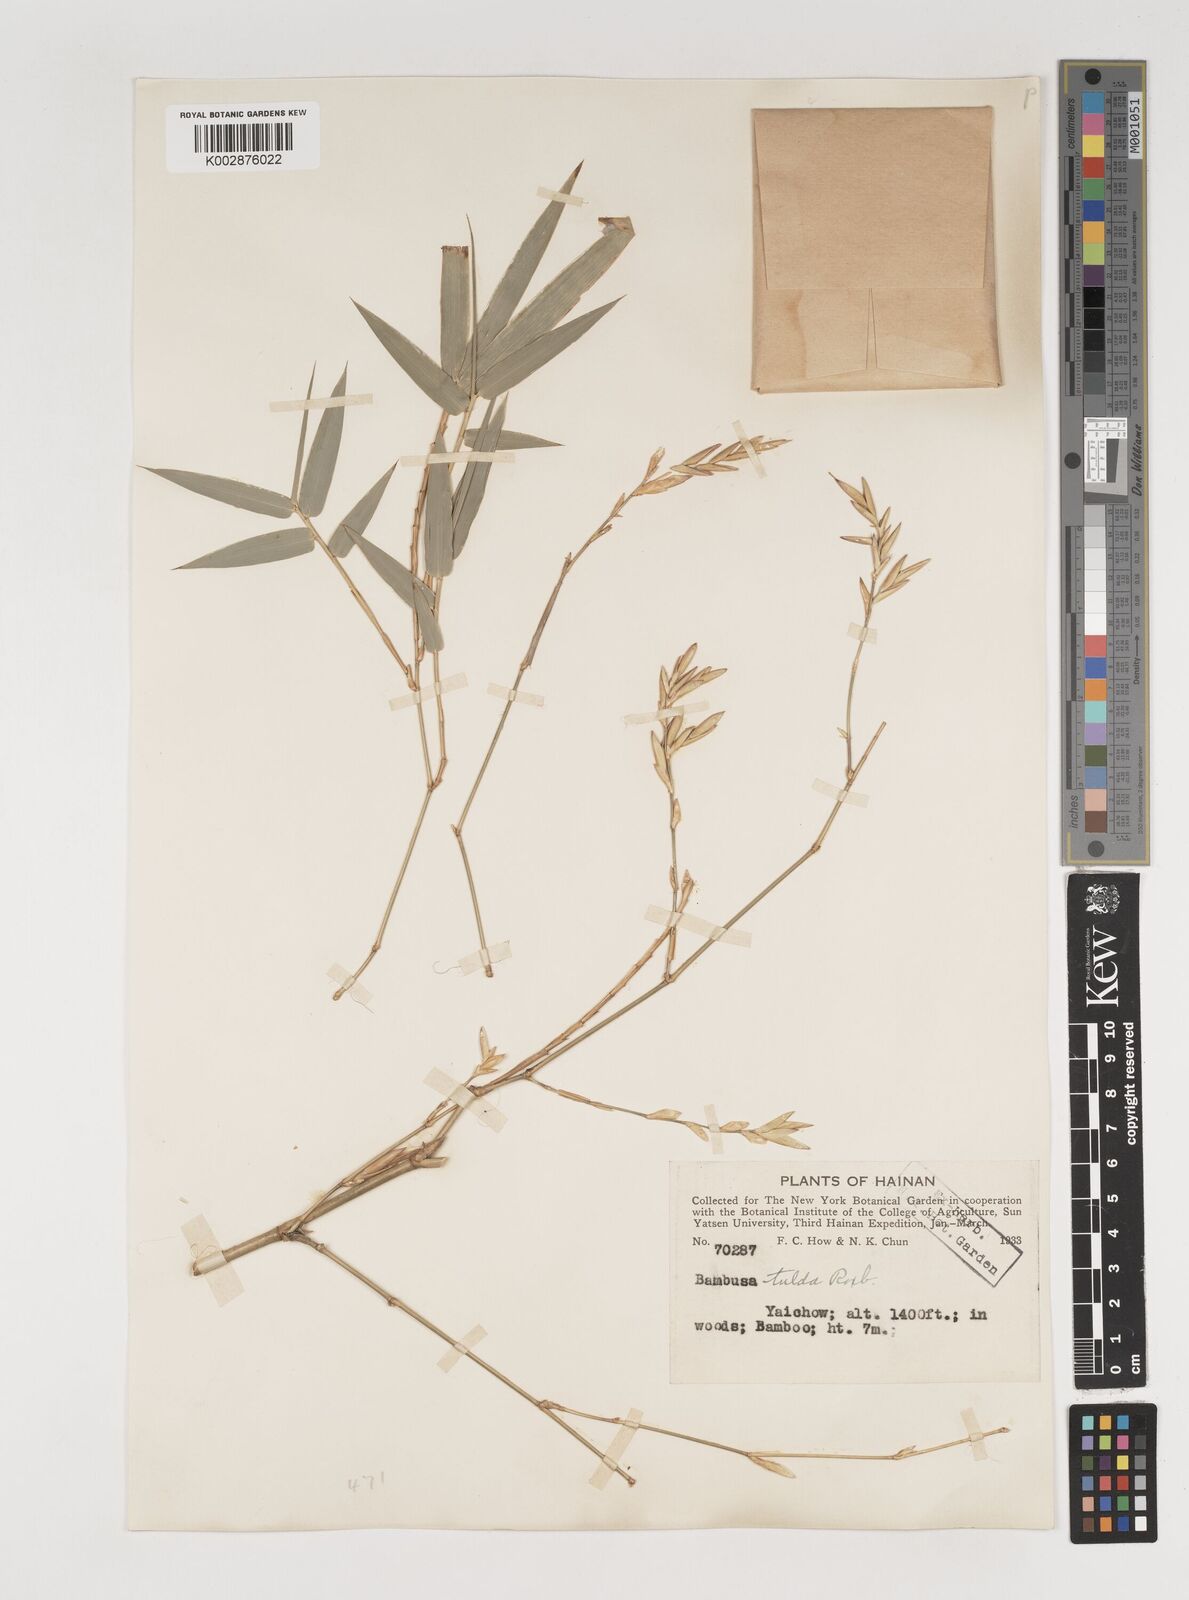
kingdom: Plantae
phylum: Tracheophyta
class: Liliopsida
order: Poales
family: Poaceae
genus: Bambusa
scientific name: Bambusa tulda
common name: Bengal bamboo
